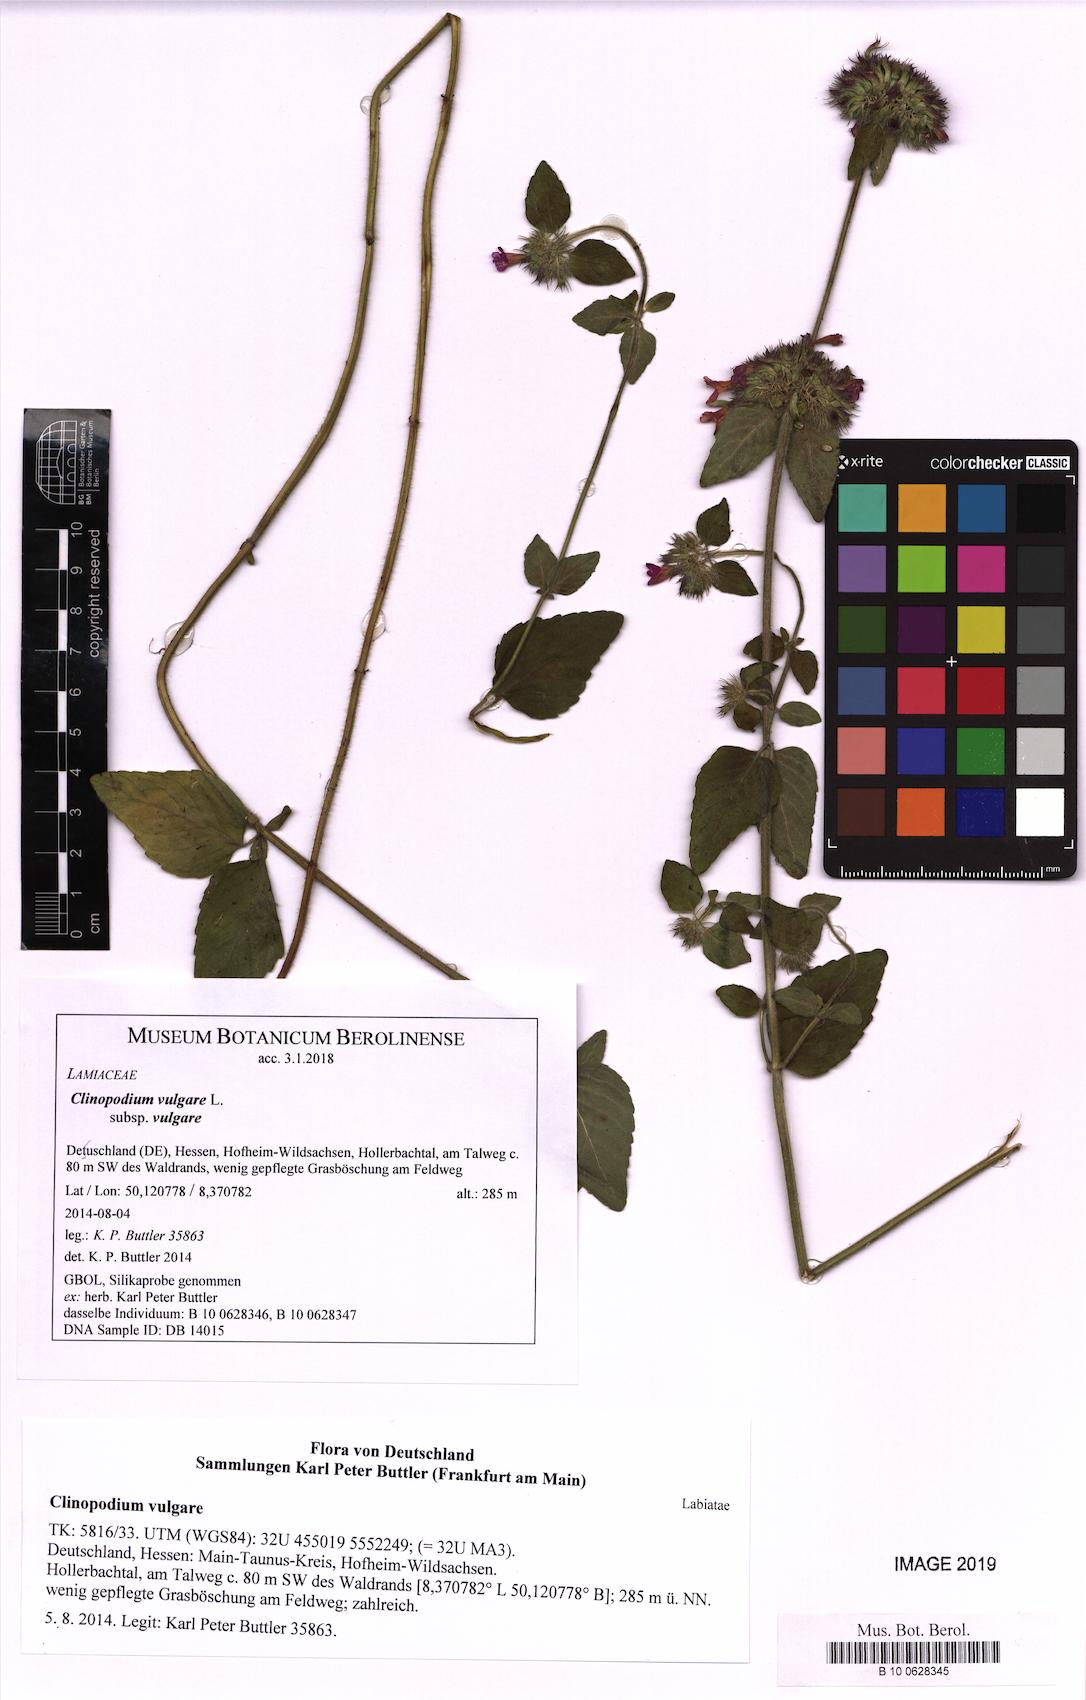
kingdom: Plantae
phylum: Tracheophyta
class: Magnoliopsida
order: Lamiales
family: Lamiaceae
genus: Clinopodium
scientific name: Clinopodium vulgare
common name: Wild basil
